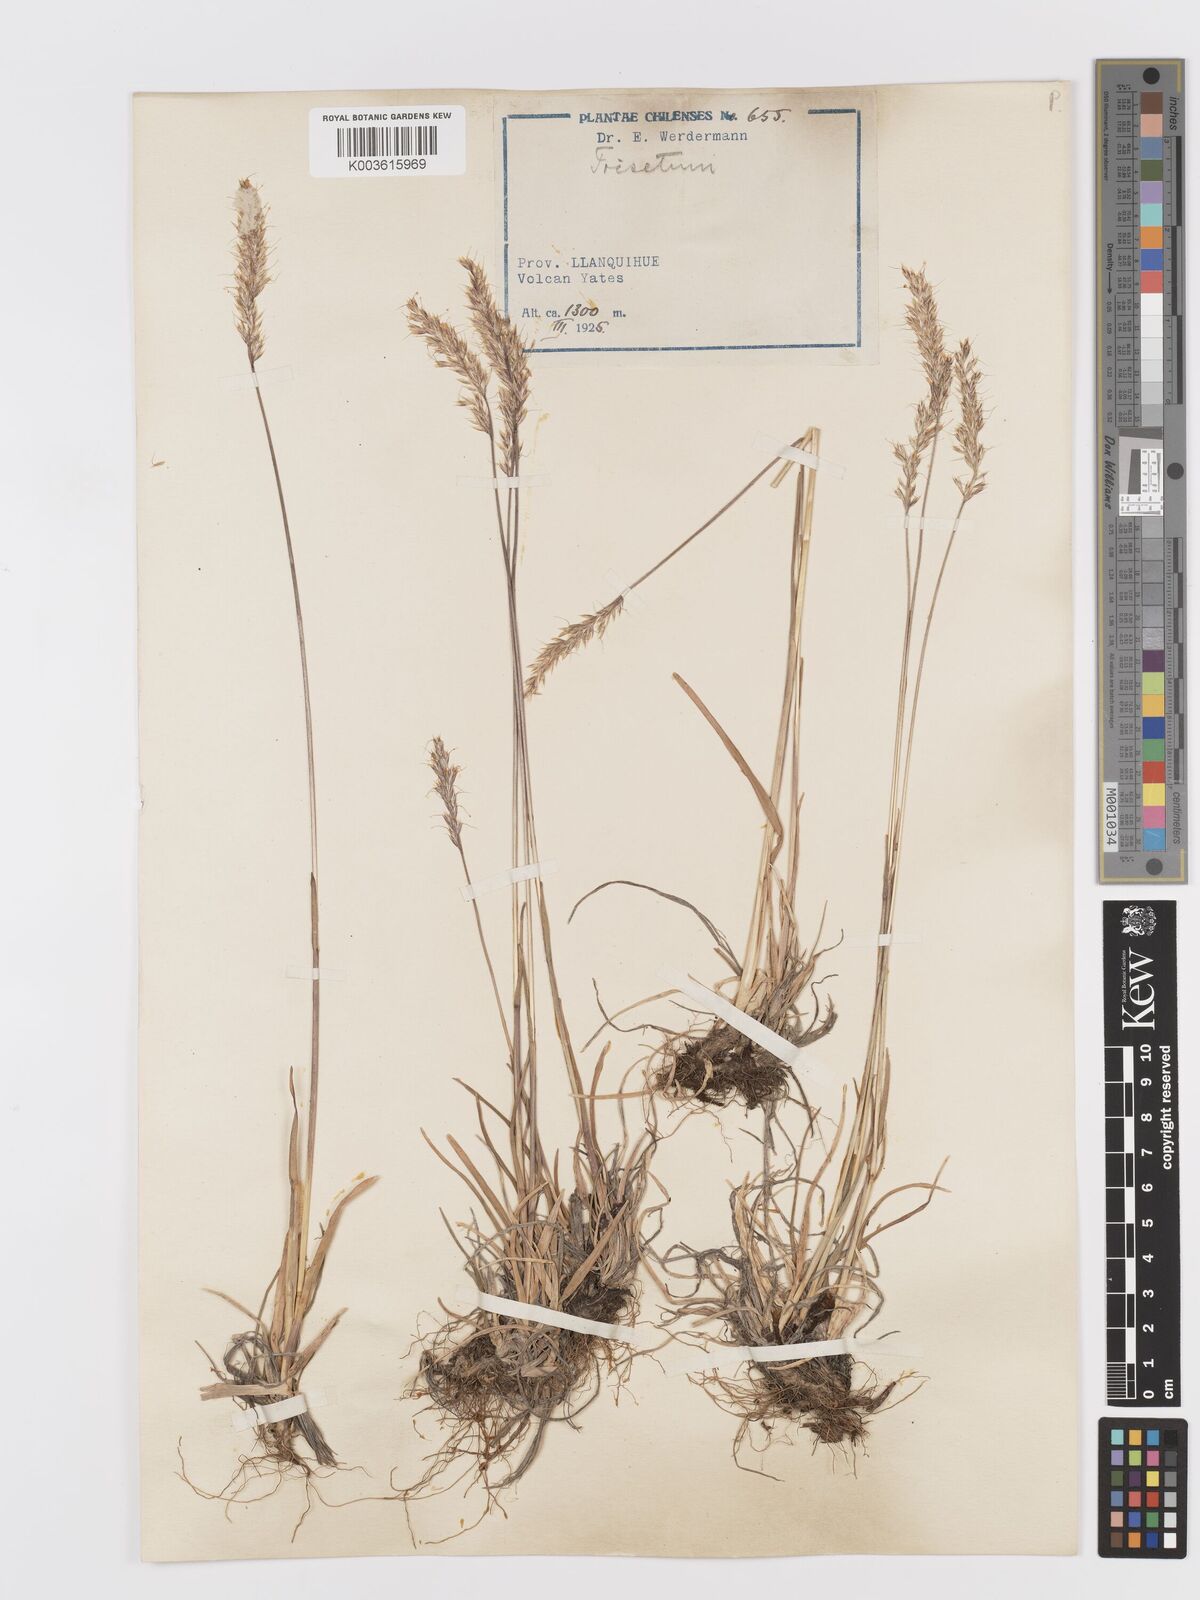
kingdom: Plantae
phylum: Tracheophyta
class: Liliopsida
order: Poales
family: Poaceae
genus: Trisetum
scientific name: Trisetum
